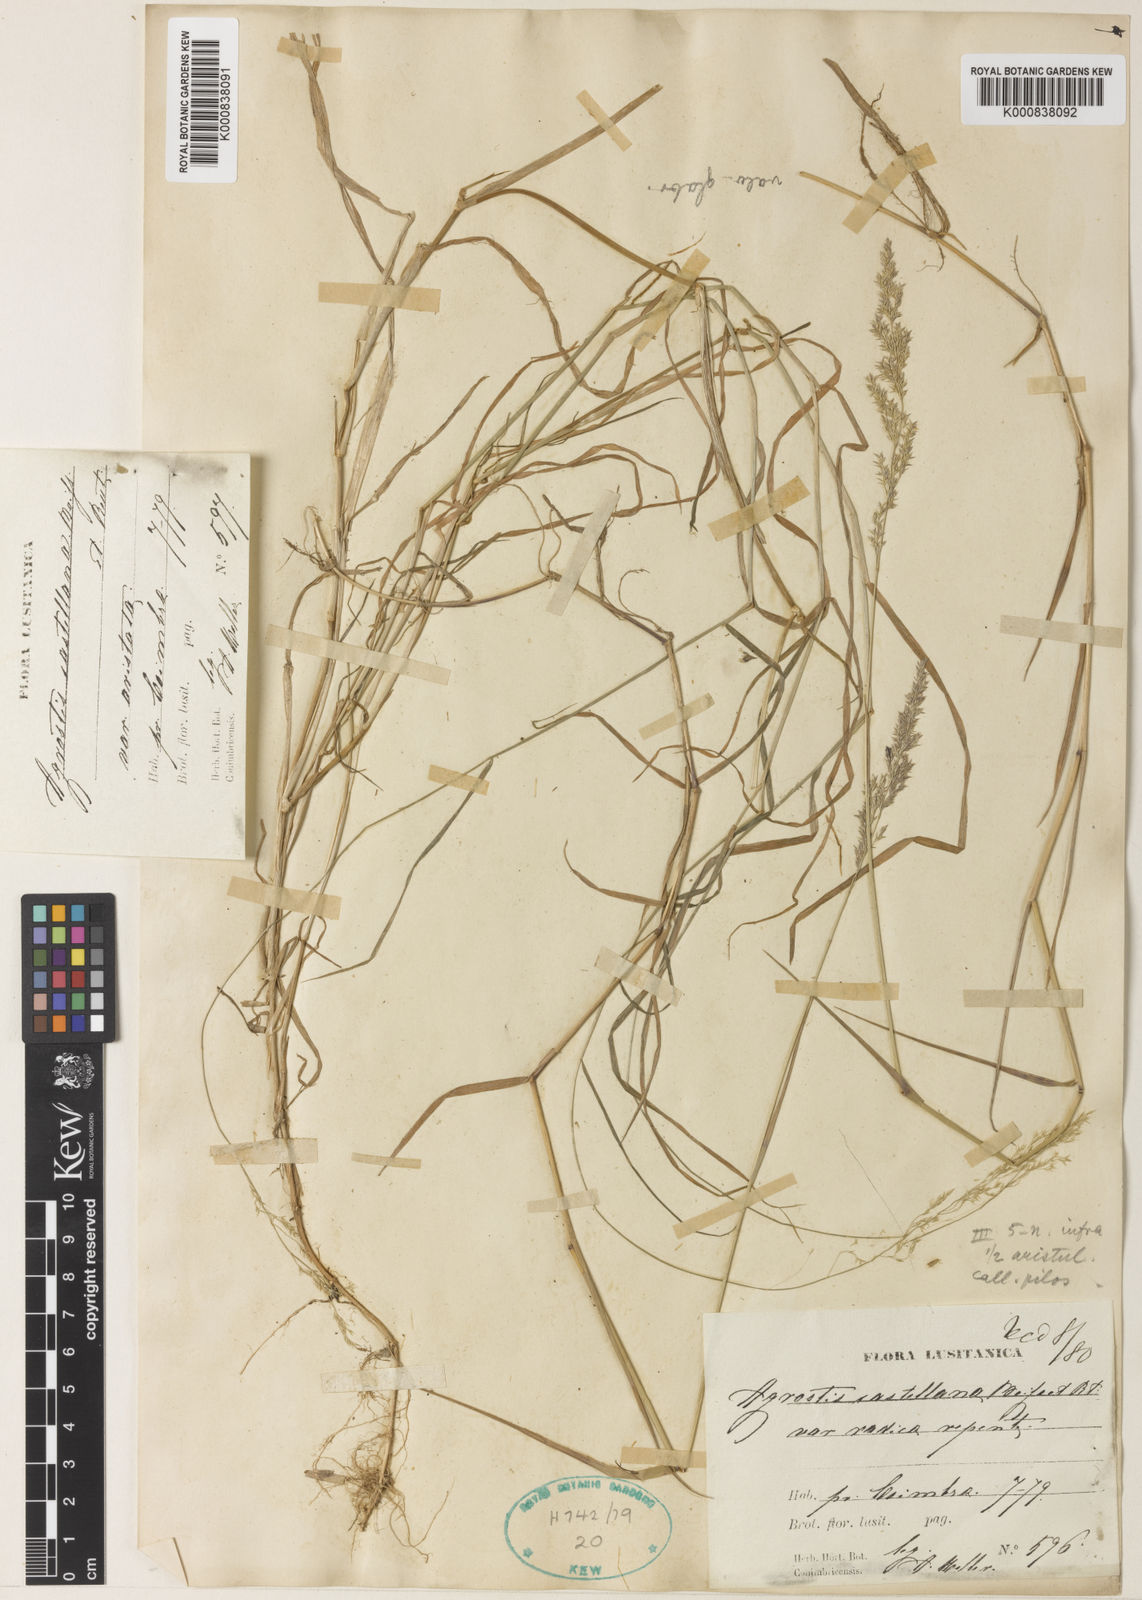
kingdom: Plantae
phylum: Tracheophyta
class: Liliopsida
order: Poales
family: Poaceae
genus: Agrostis
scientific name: Agrostis castellana
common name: Highland bent
